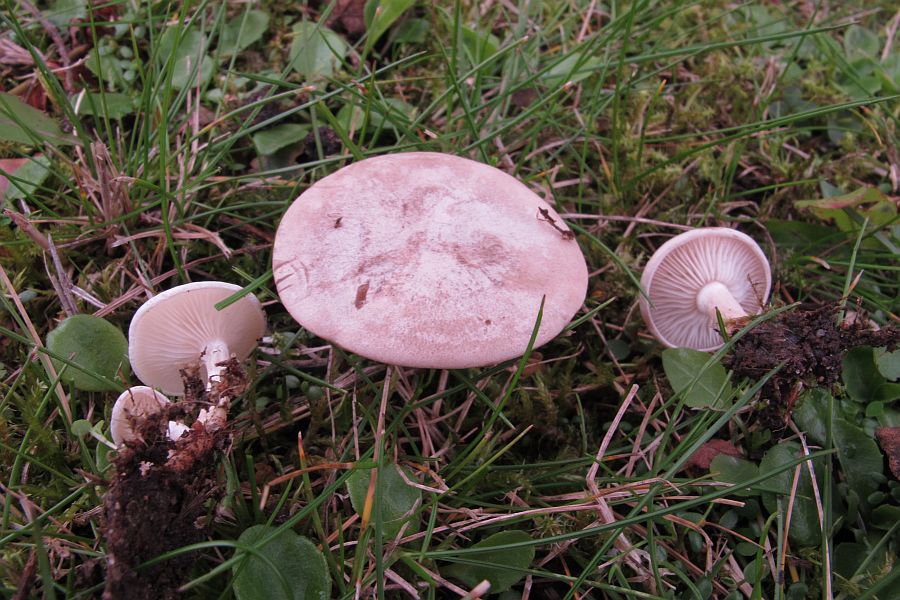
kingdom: Fungi
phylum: Basidiomycota
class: Agaricomycetes
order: Agaricales
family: Tricholomataceae
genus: Clitocybe
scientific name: Clitocybe rivulosa
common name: eng-tragthat
